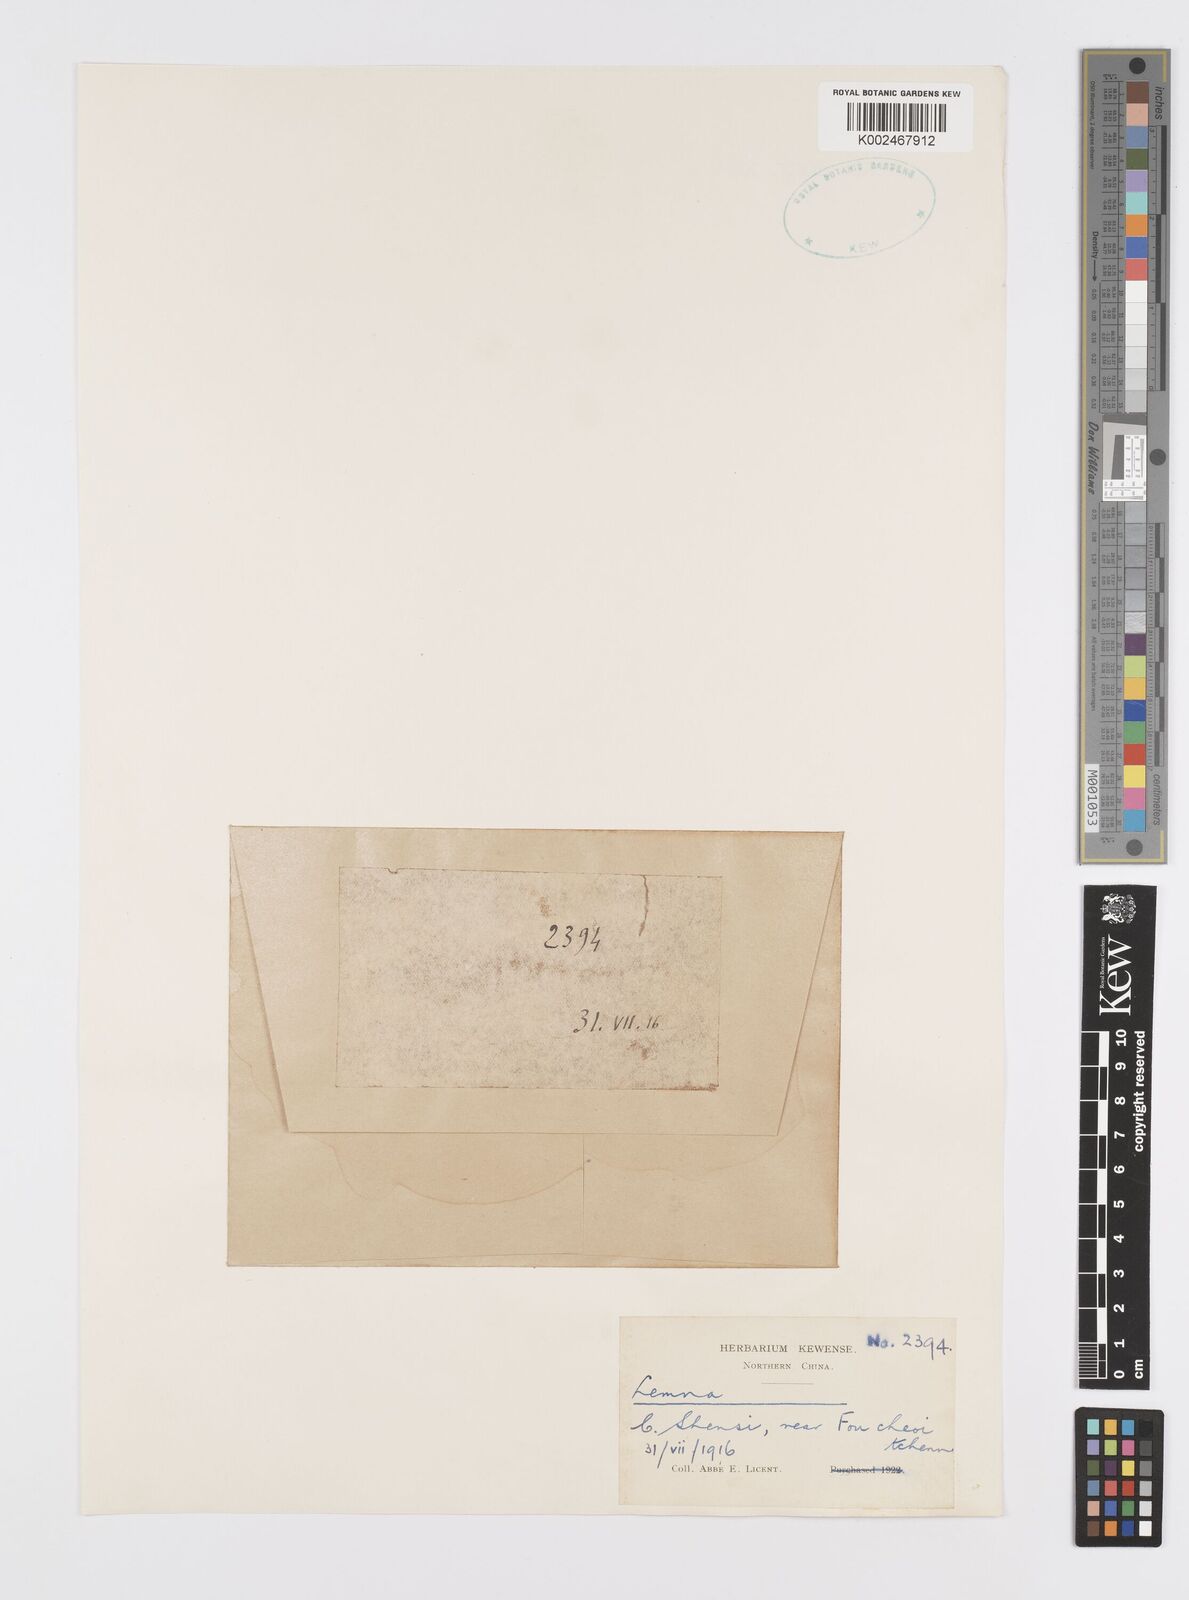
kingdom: Plantae
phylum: Tracheophyta
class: Liliopsida
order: Alismatales
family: Araceae
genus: Lemna
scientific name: Lemna
